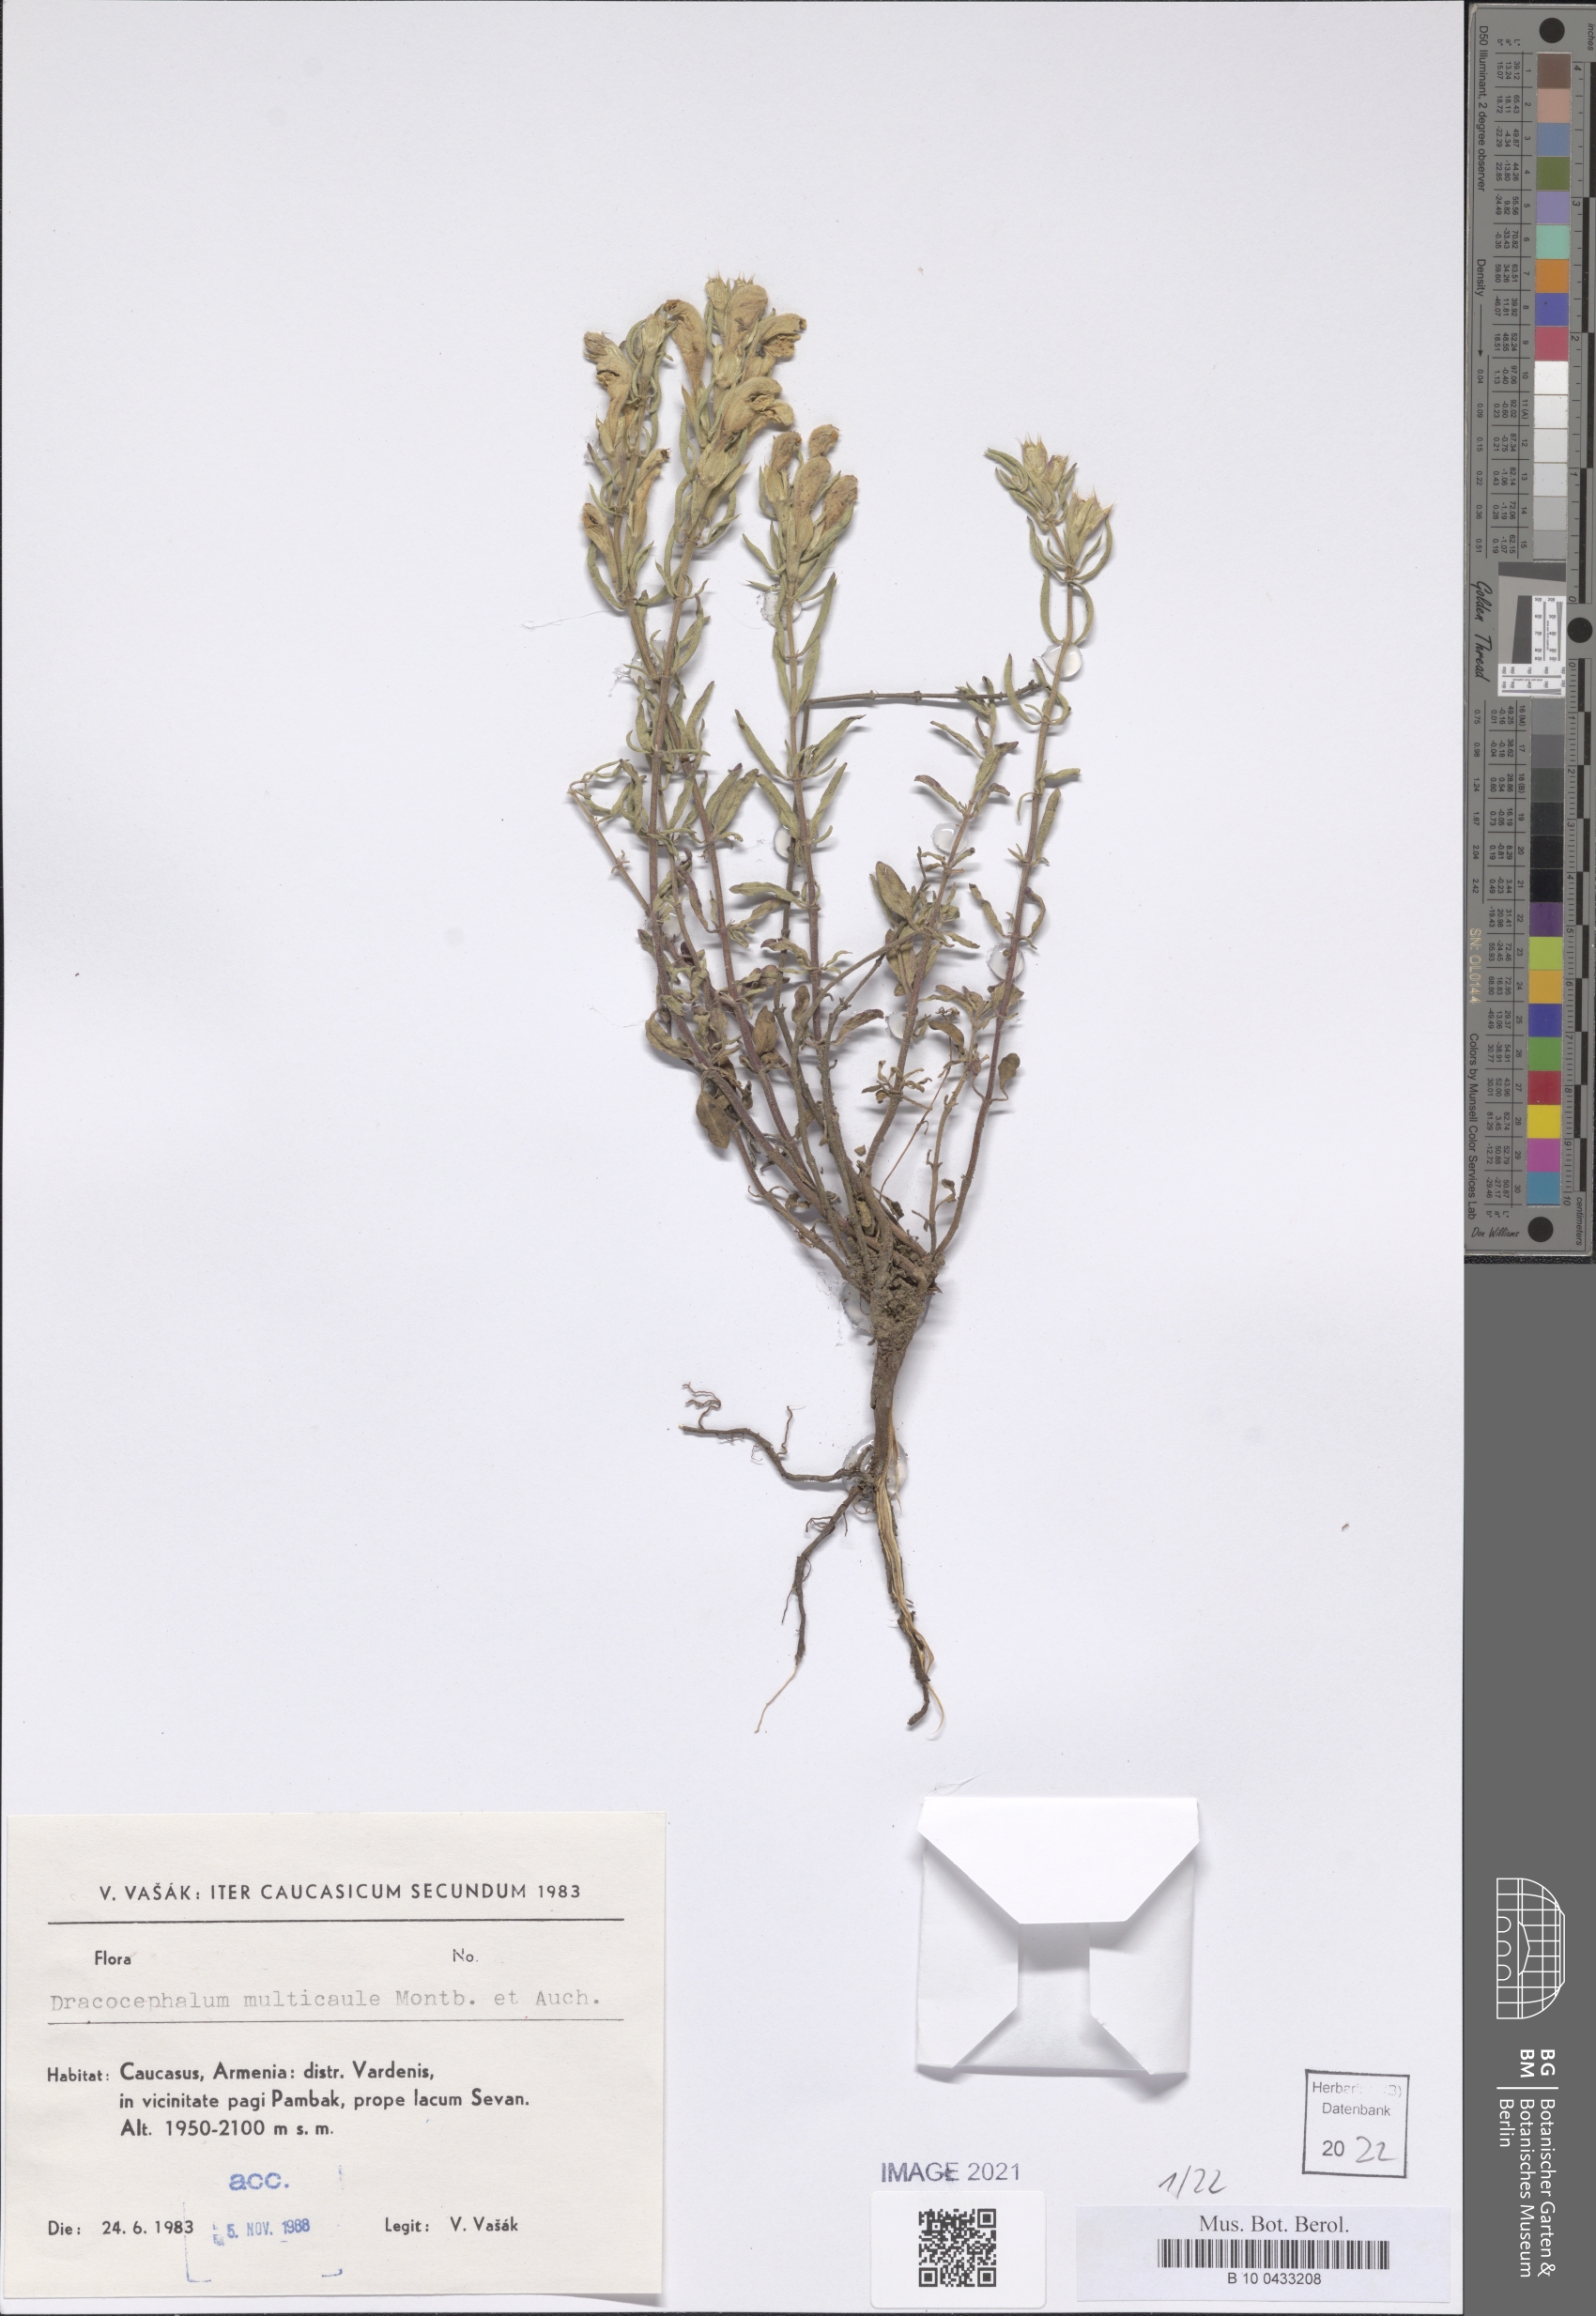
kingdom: Plantae
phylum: Tracheophyta
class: Magnoliopsida
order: Lamiales
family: Lamiaceae
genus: Dracocephalum
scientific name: Dracocephalum multicaule
